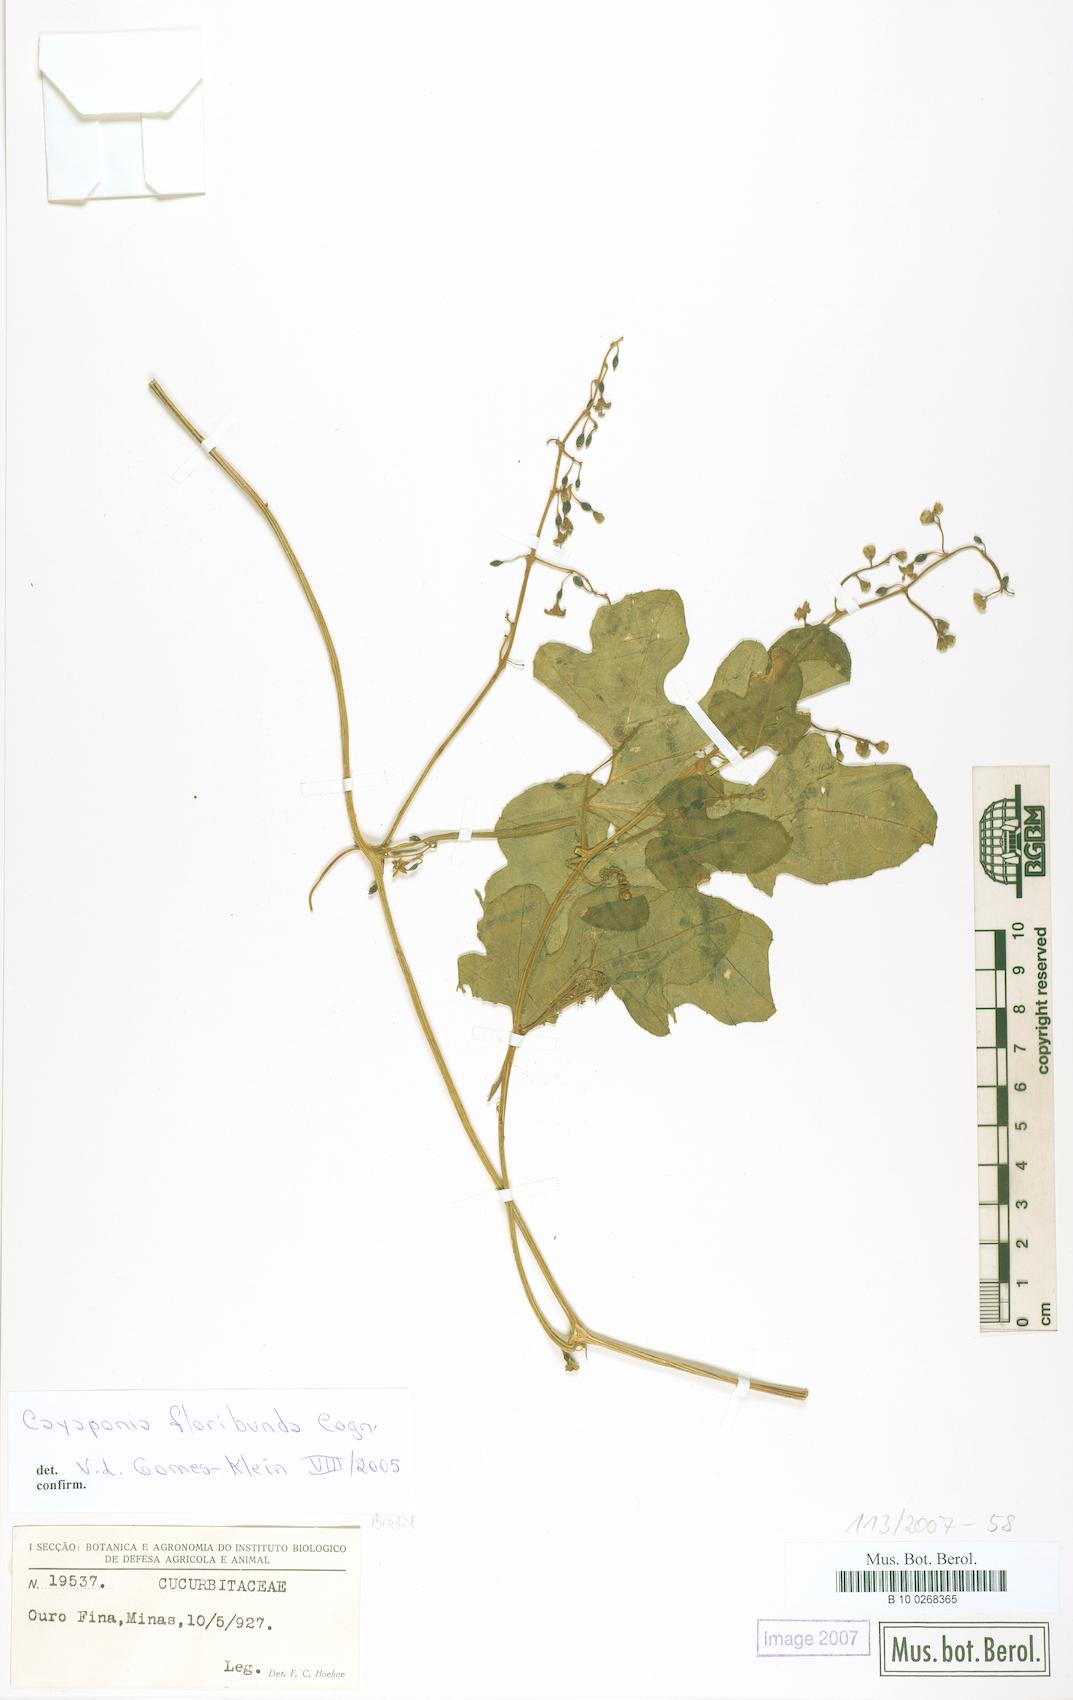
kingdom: Plantae
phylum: Tracheophyta
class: Magnoliopsida
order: Cucurbitales
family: Cucurbitaceae
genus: Cayaponia
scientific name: Cayaponia floribunda
